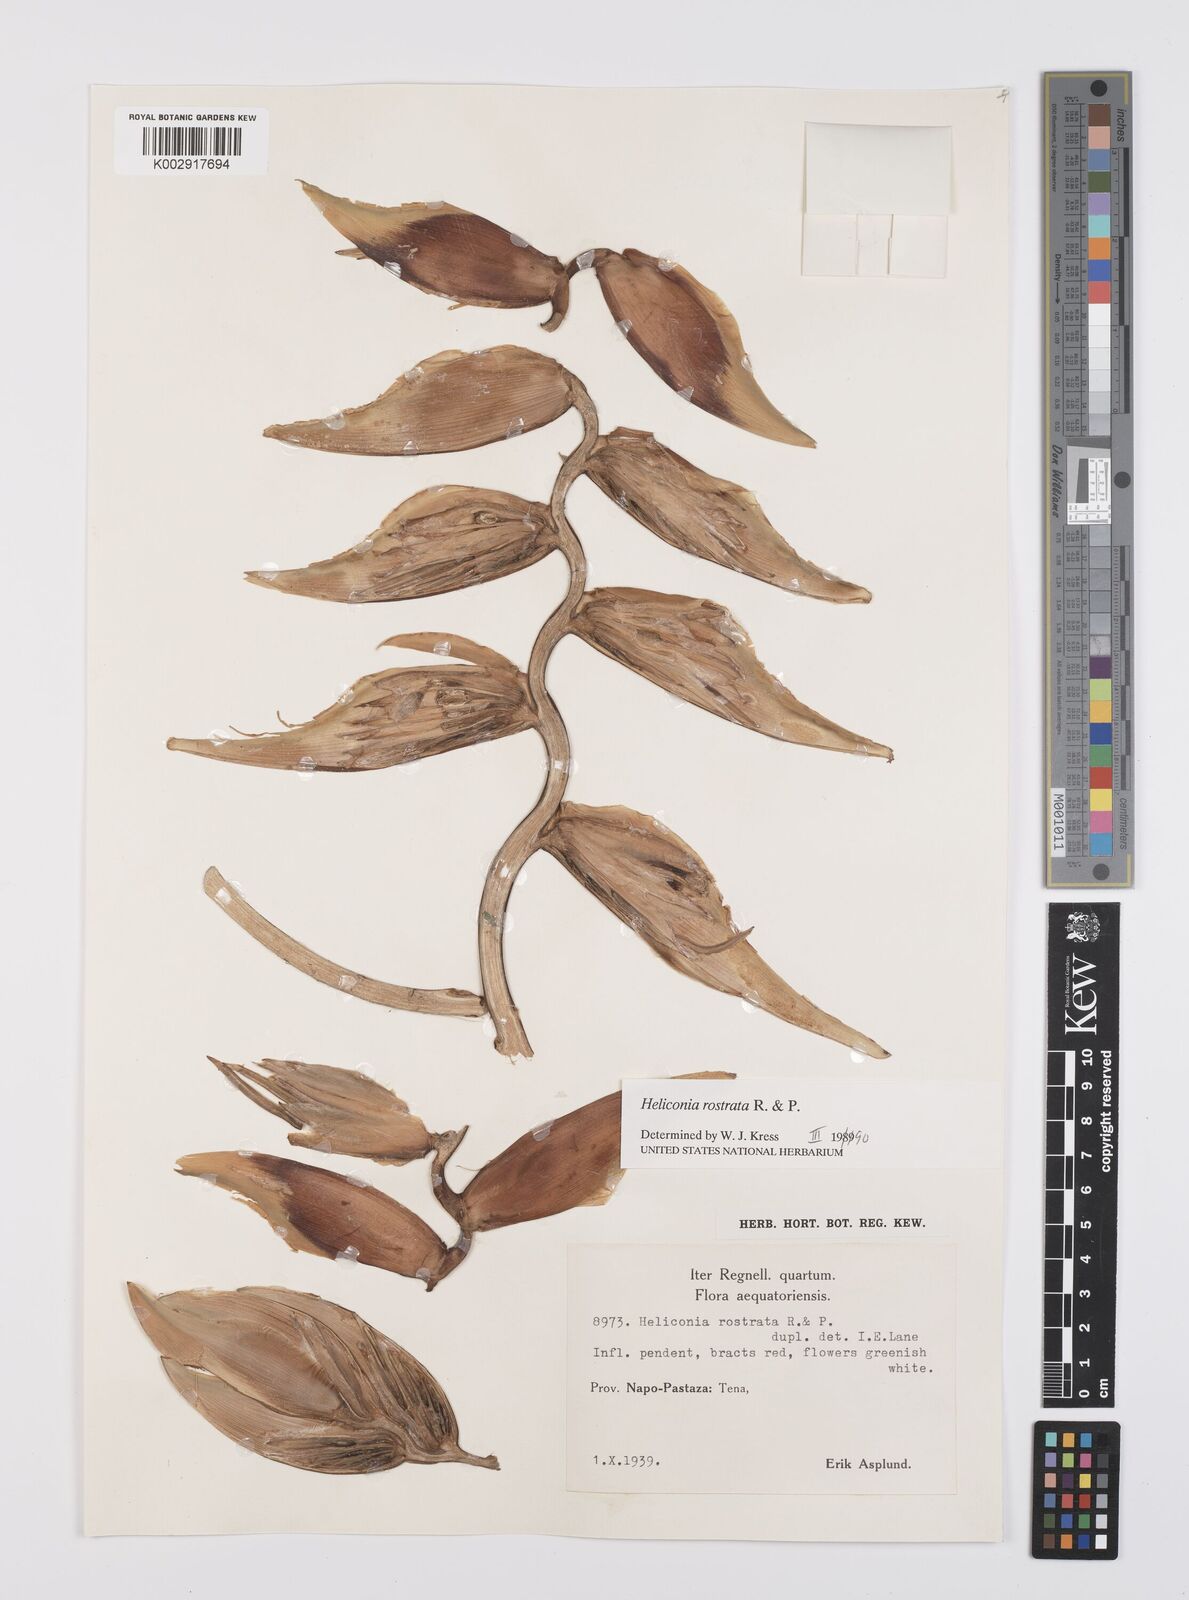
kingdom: Plantae
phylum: Tracheophyta
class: Liliopsida
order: Zingiberales
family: Heliconiaceae
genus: Heliconia
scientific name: Heliconia rostrata
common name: False bird of paradise
